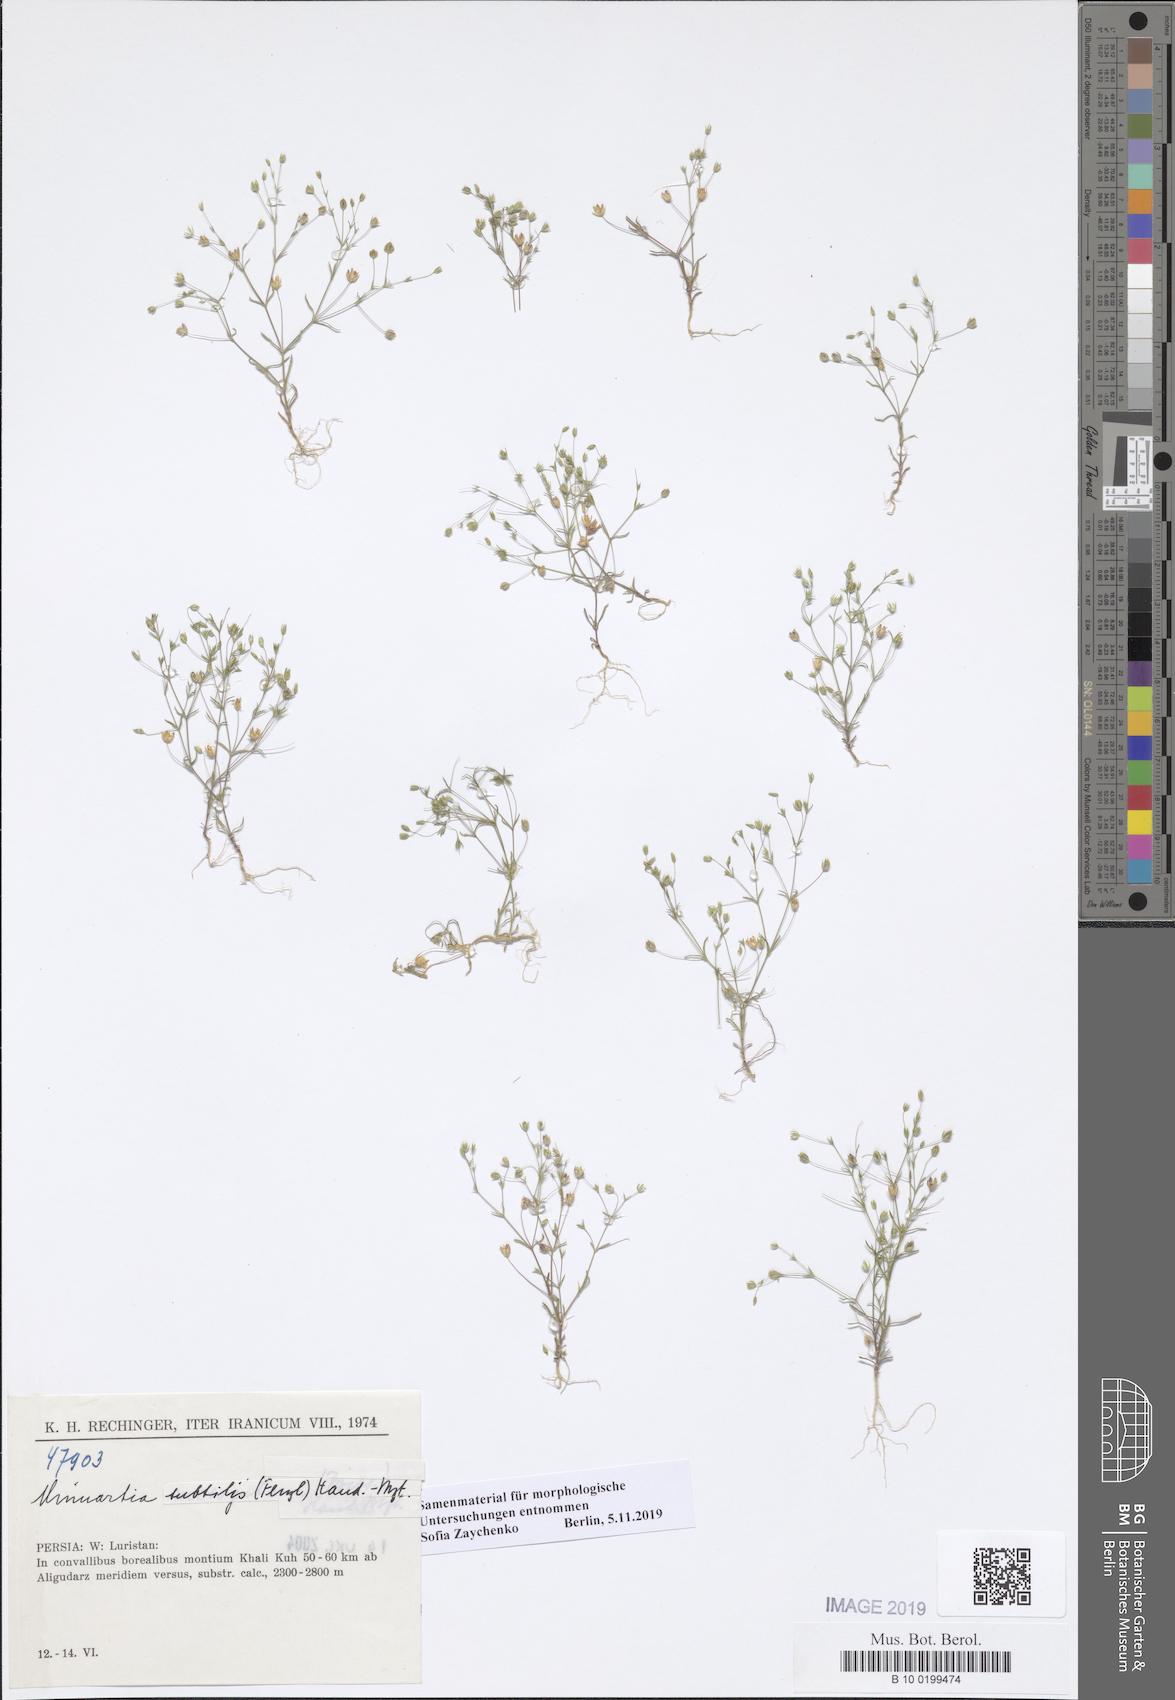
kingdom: Plantae
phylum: Tracheophyta
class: Magnoliopsida
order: Caryophyllales
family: Caryophyllaceae
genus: Sabulina
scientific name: Sabulina subtilis
